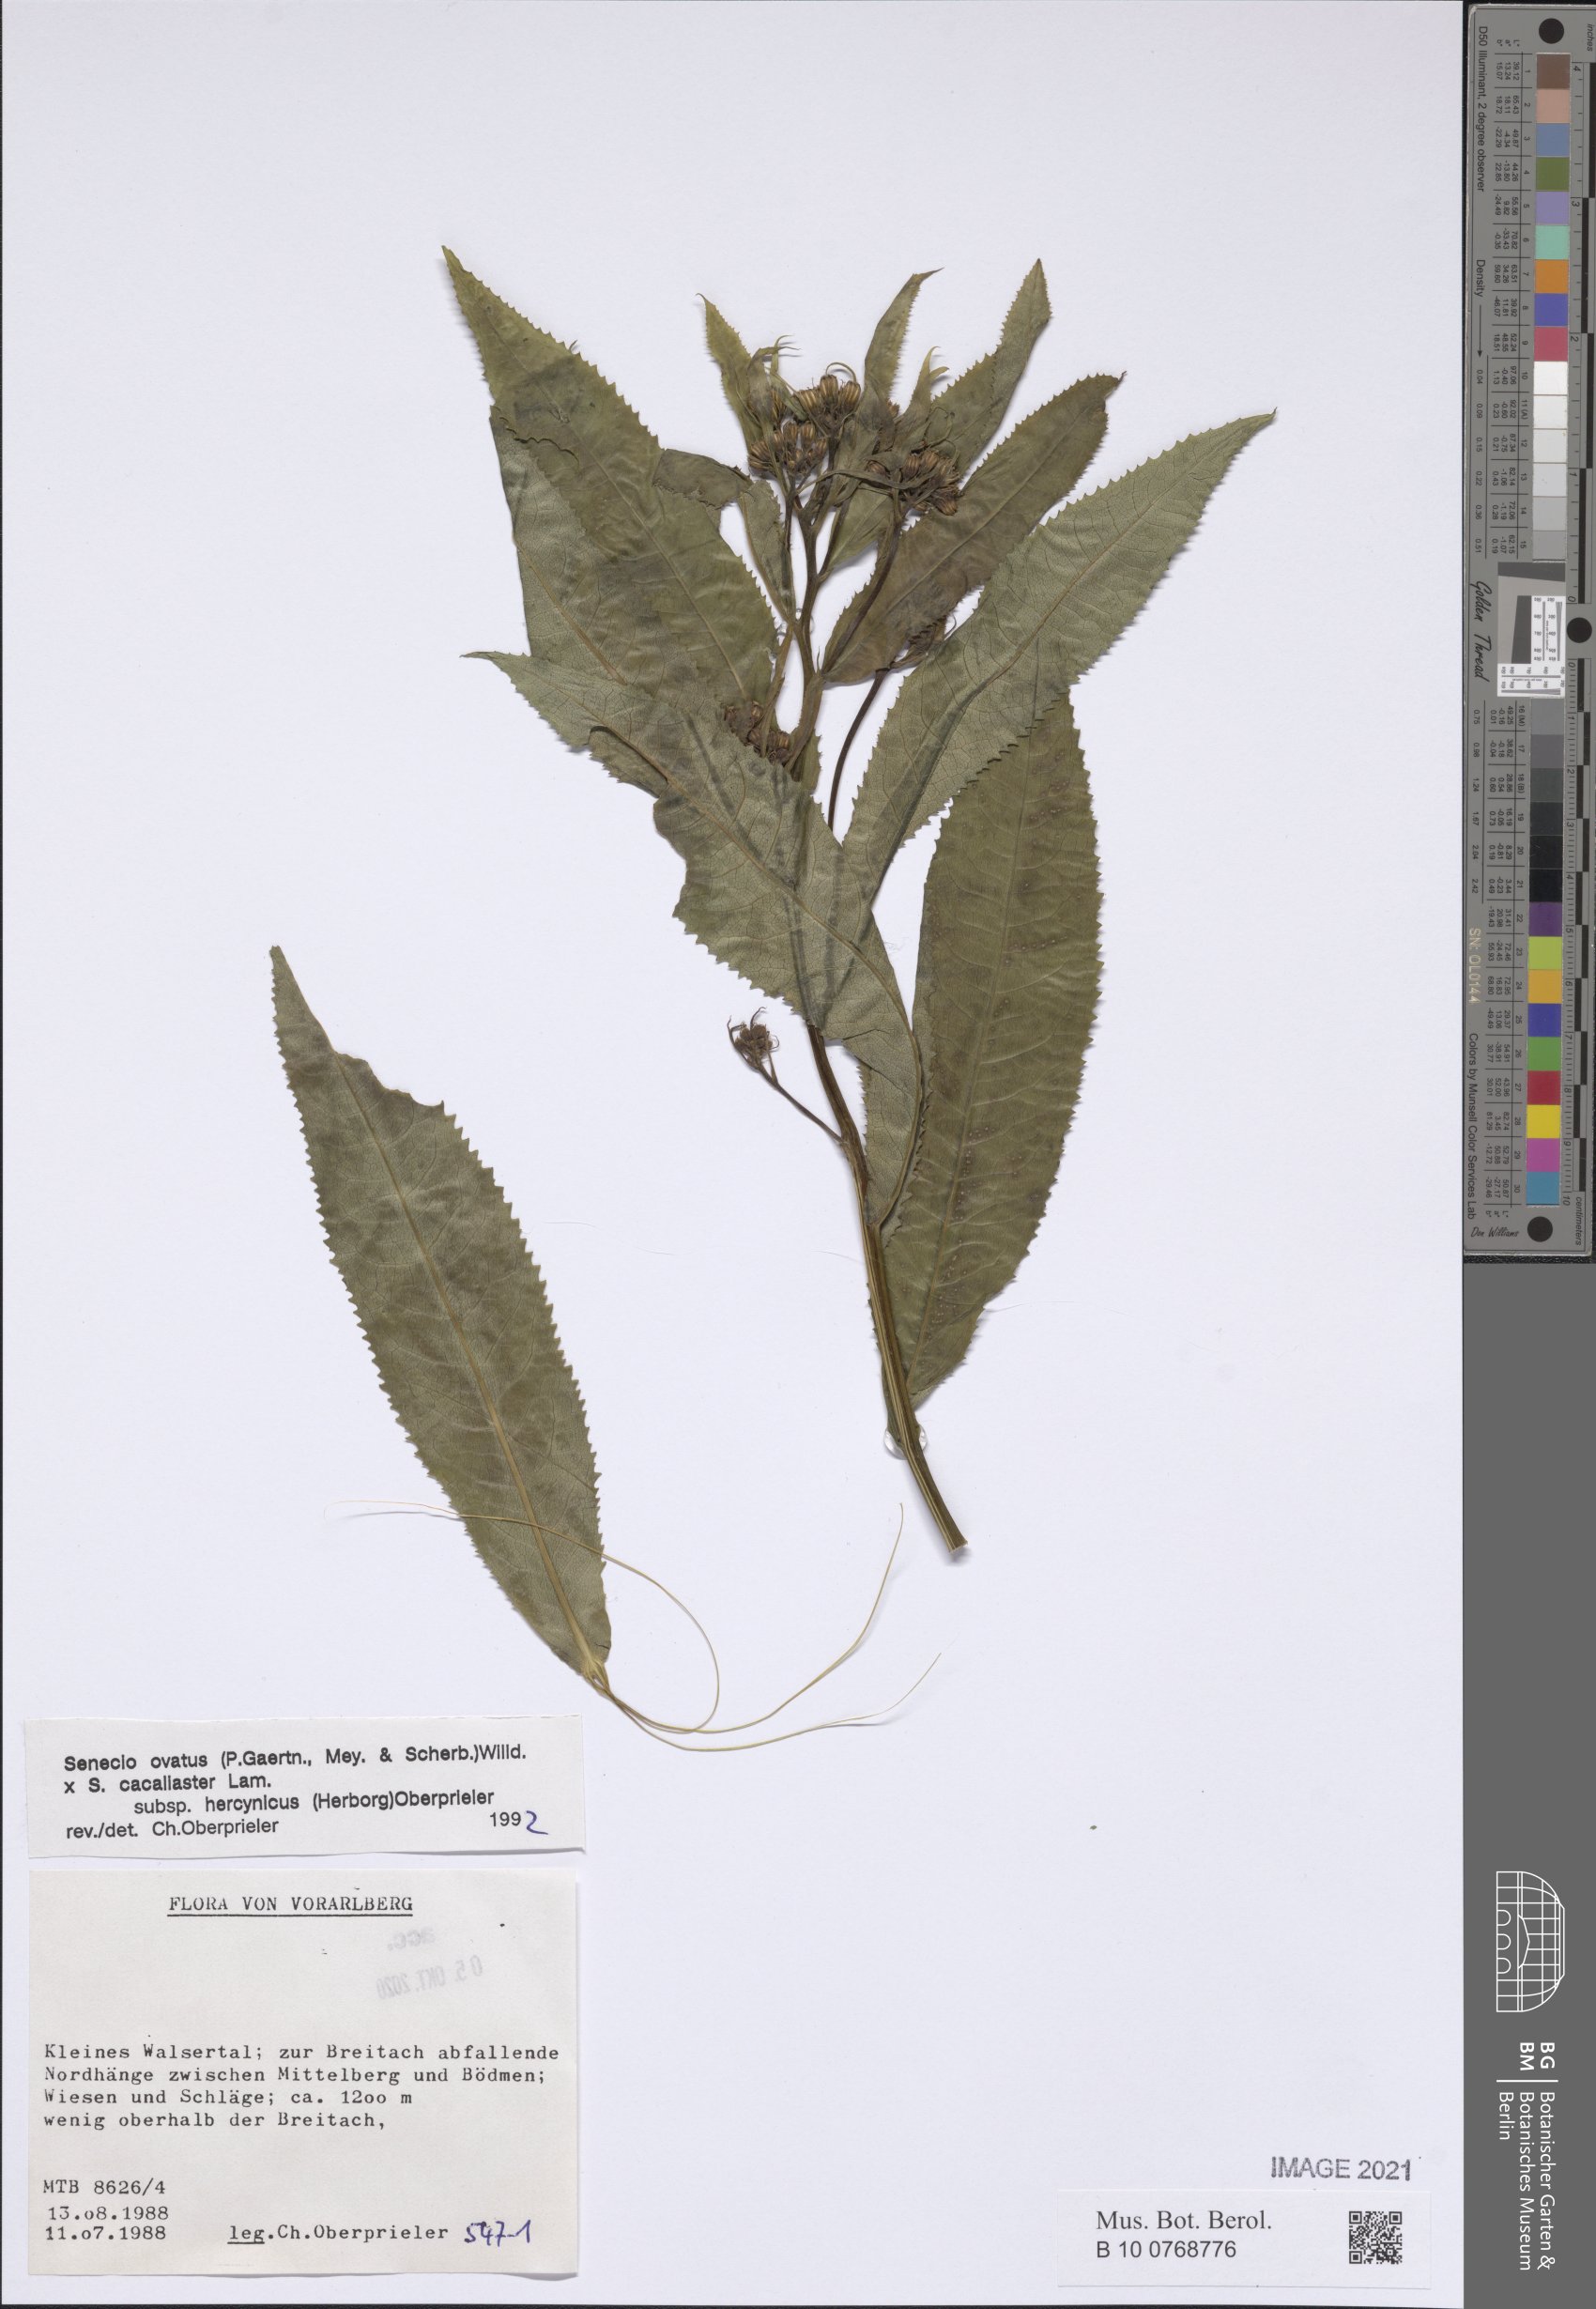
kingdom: Plantae
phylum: Tracheophyta
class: Magnoliopsida
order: Asterales
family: Asteraceae
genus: Senecio
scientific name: Senecio ovatus
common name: Wood ragwort
